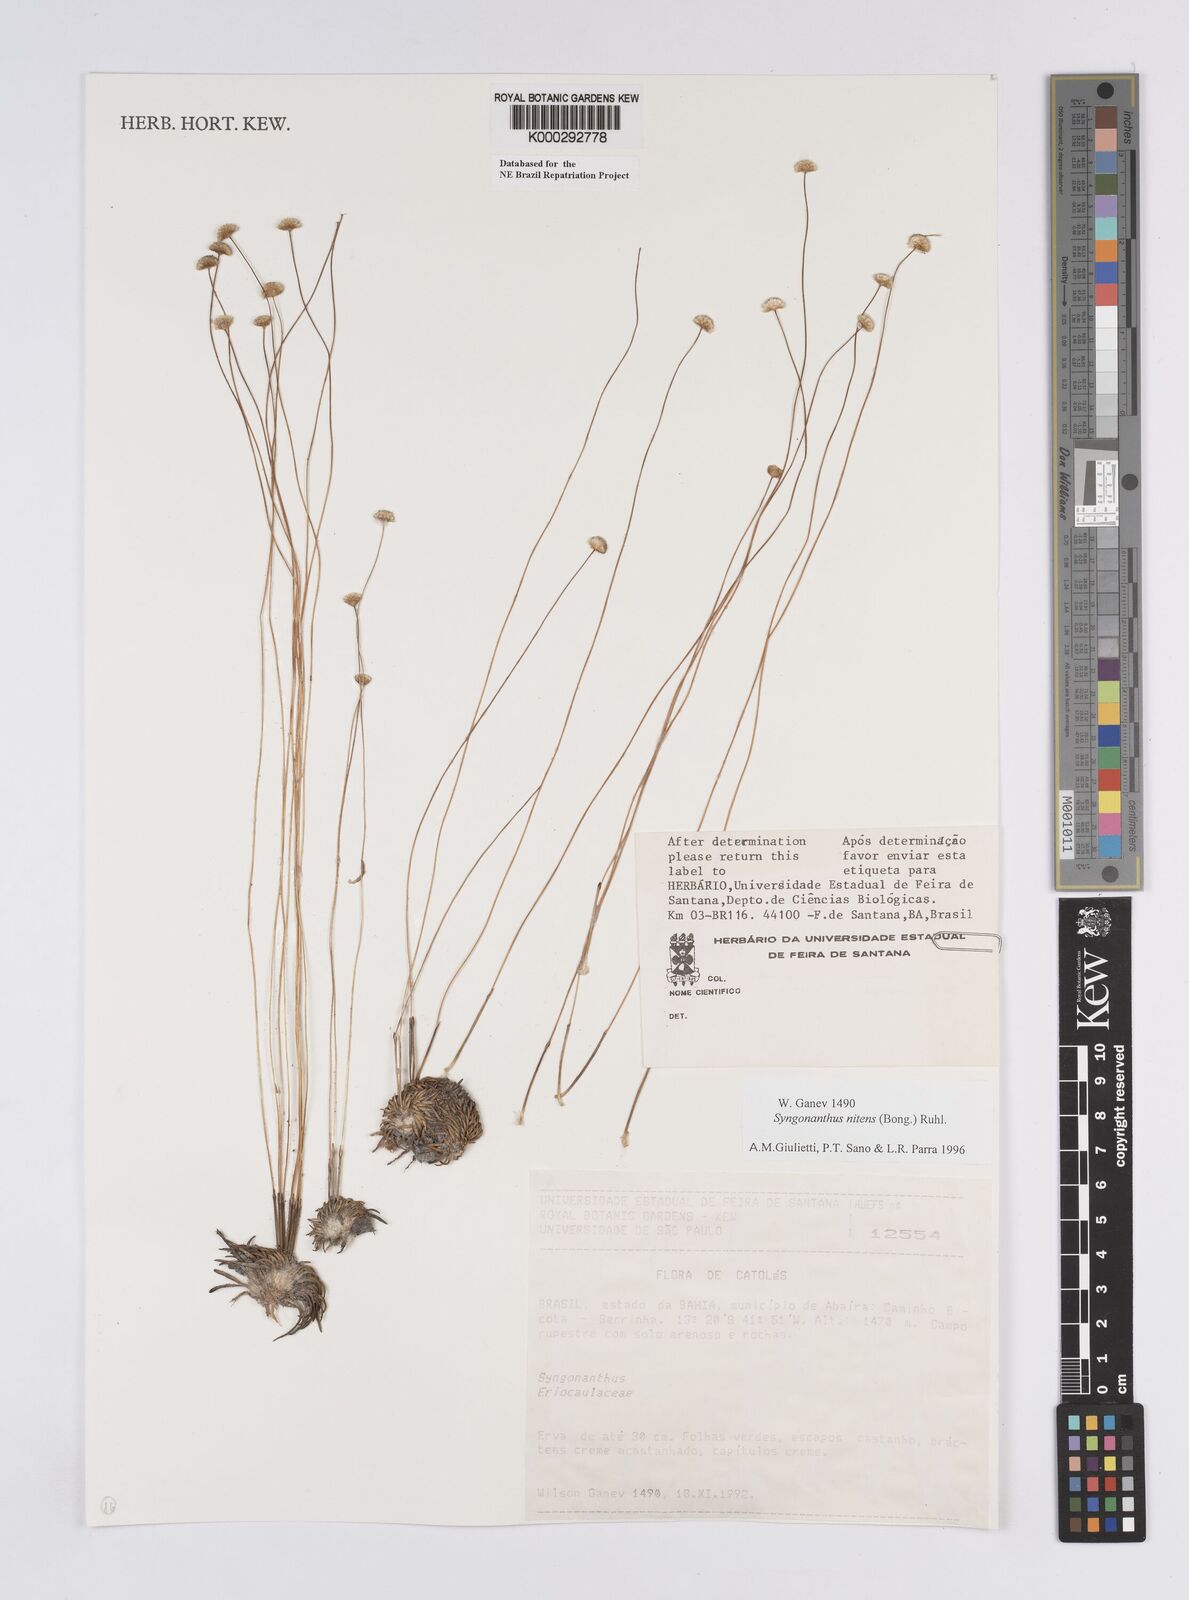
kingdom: Plantae
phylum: Tracheophyta
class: Liliopsida
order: Poales
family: Eriocaulaceae
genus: Syngonanthus
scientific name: Syngonanthus
